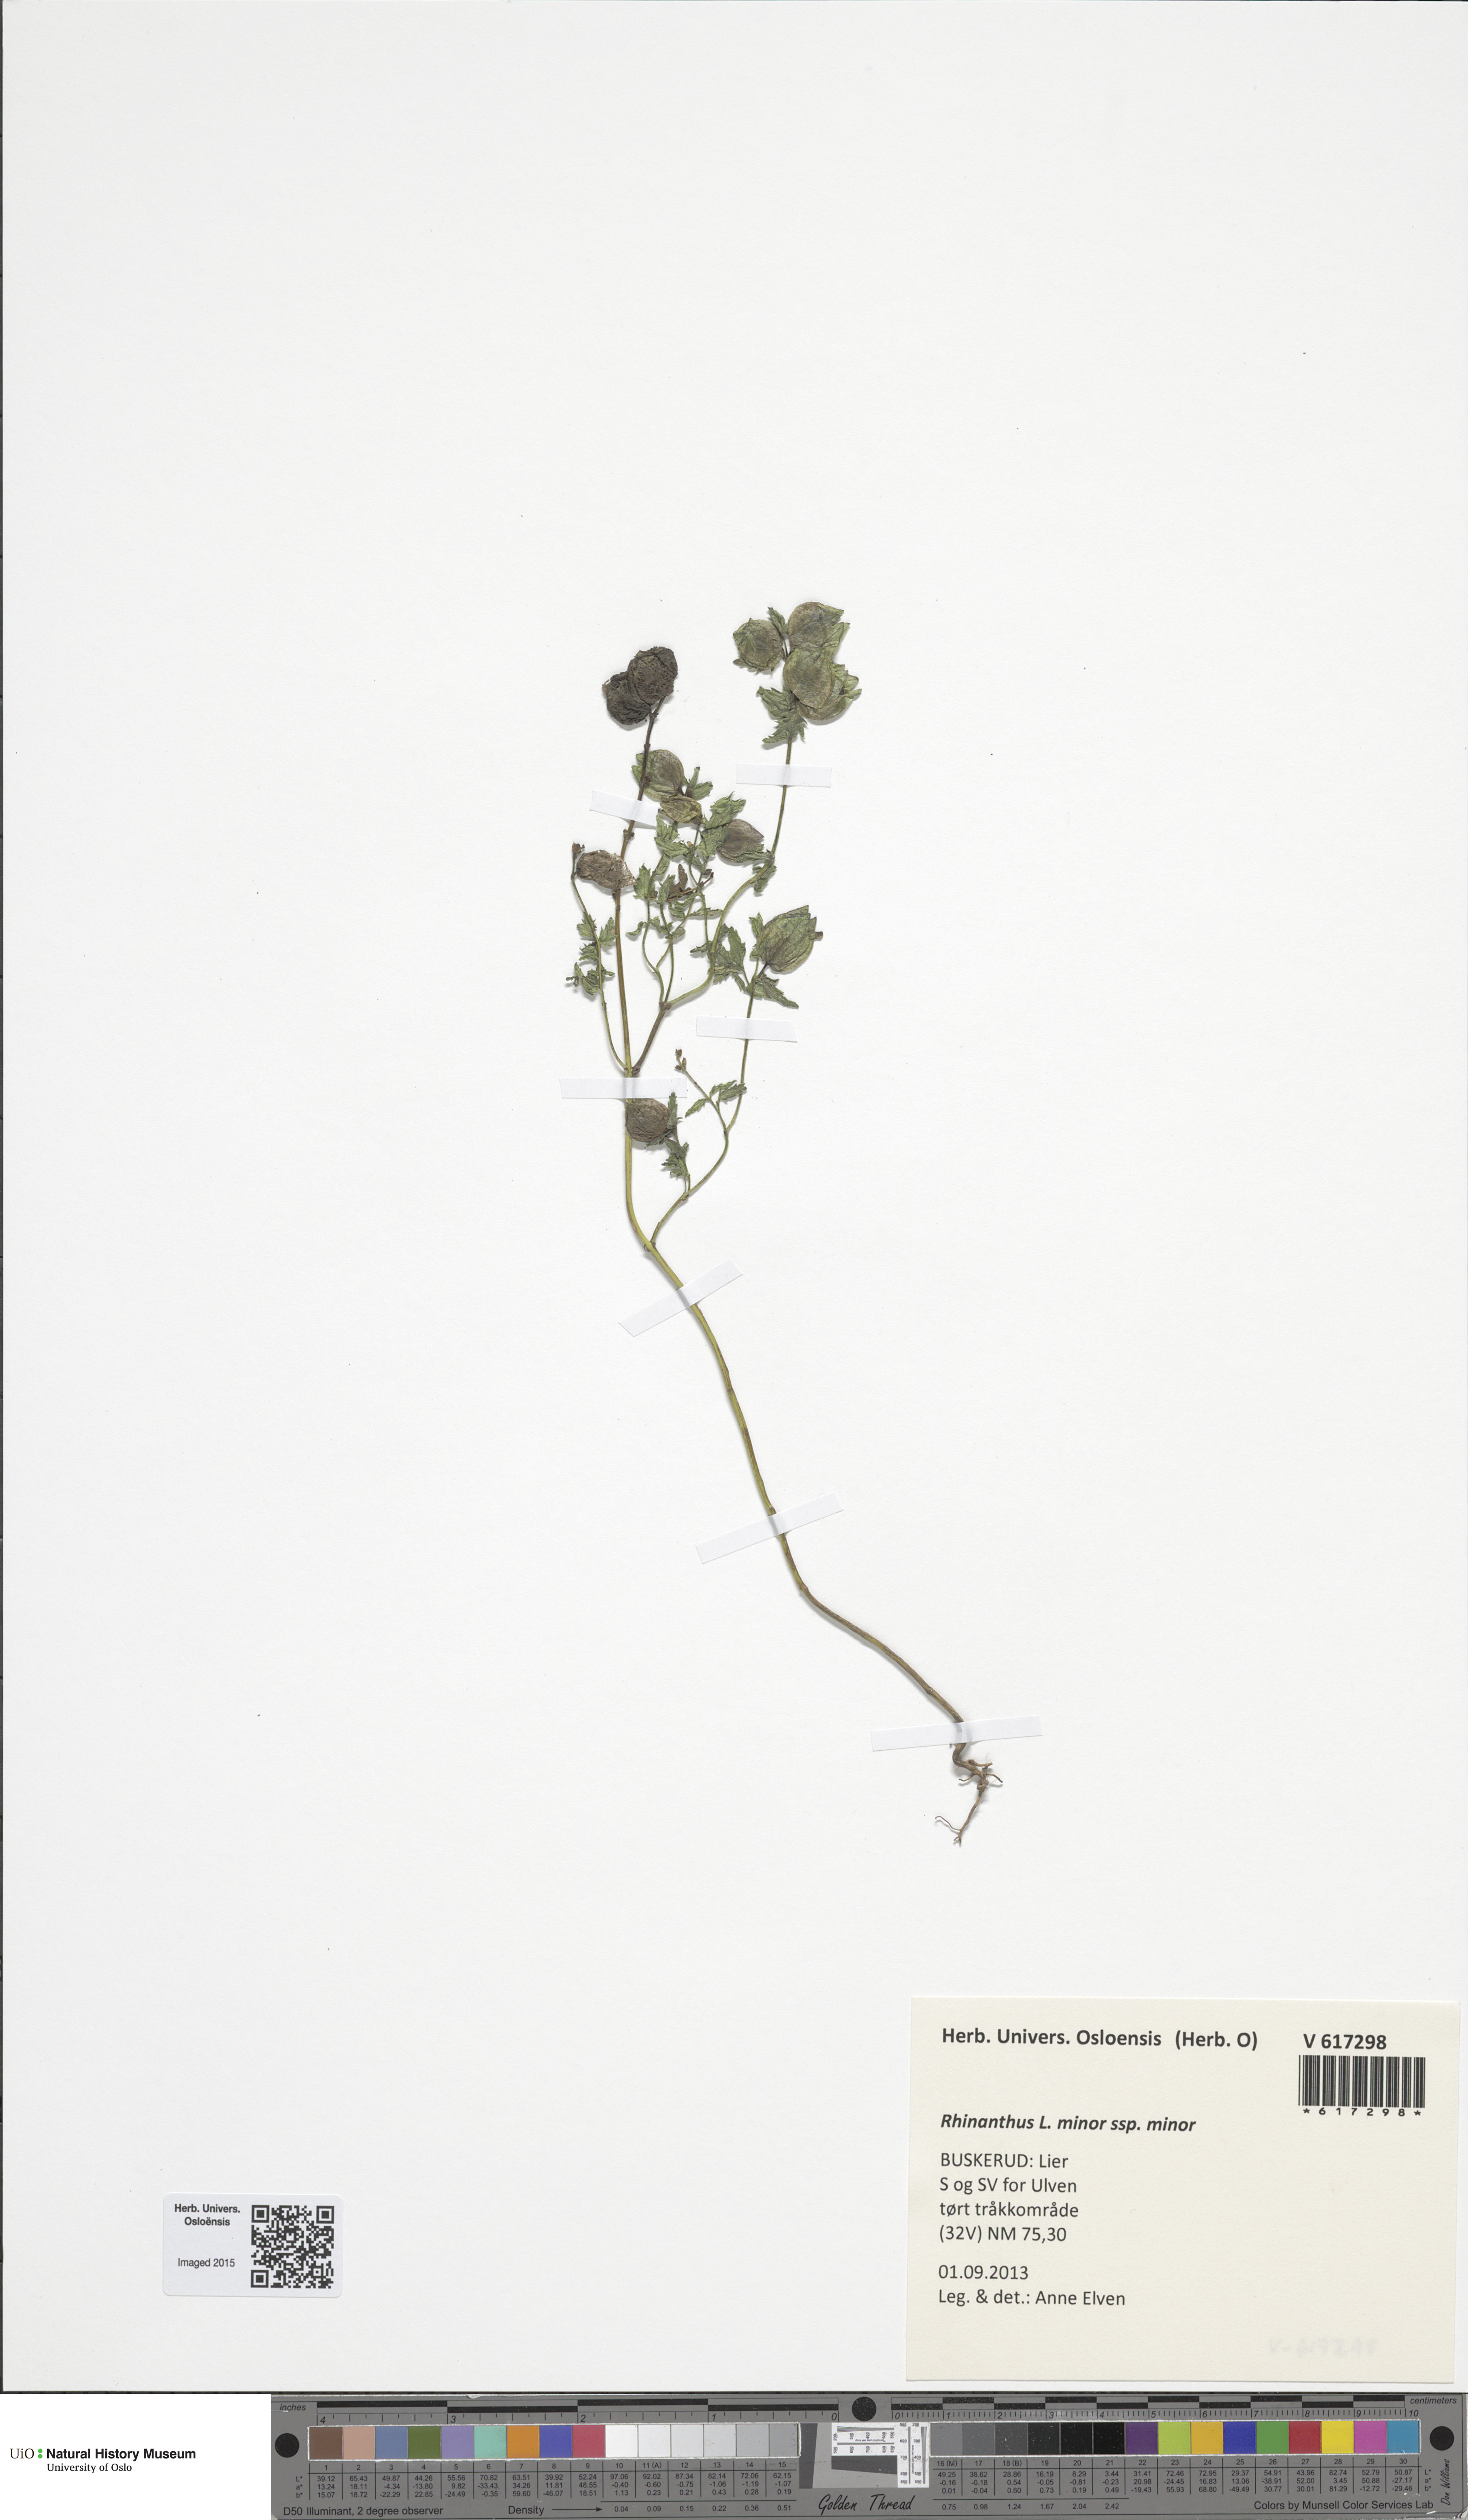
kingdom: Plantae
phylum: Tracheophyta
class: Magnoliopsida
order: Lamiales
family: Orobanchaceae
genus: Rhinanthus
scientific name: Rhinanthus minor
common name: Yellow-rattle
